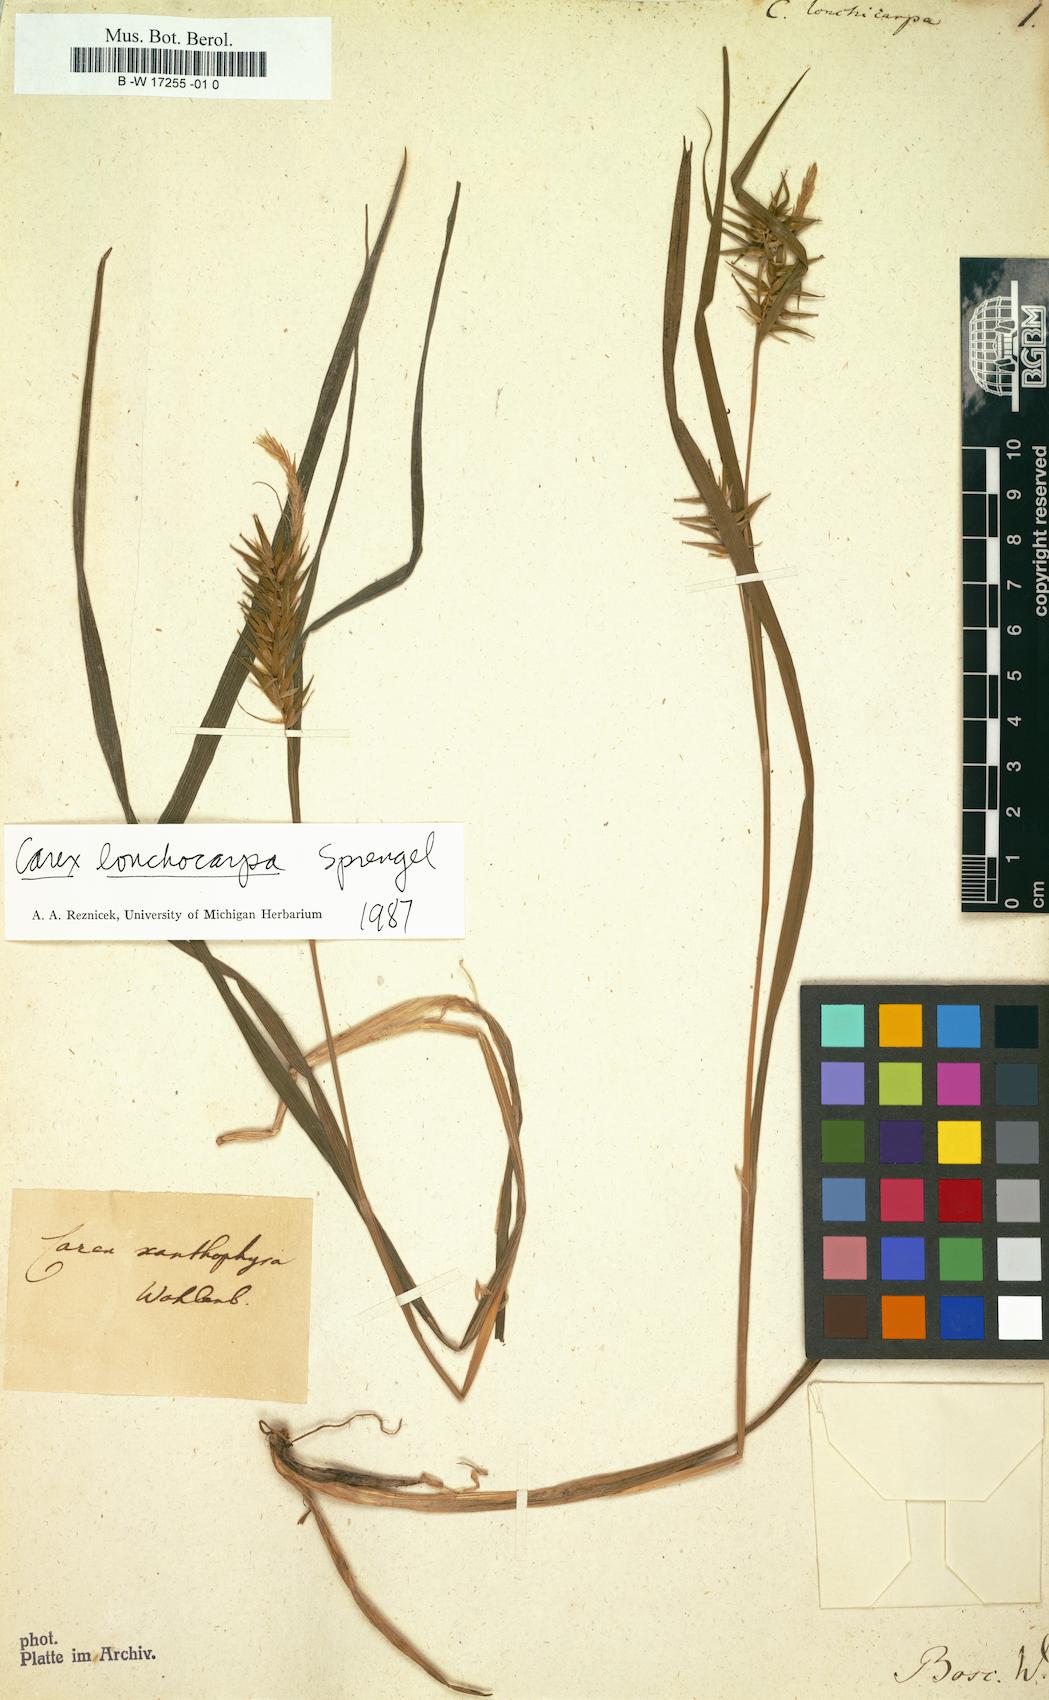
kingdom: Plantae
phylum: Tracheophyta
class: Liliopsida
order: Poales
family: Cyperaceae
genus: Carex
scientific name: Carex lonchicarpa
